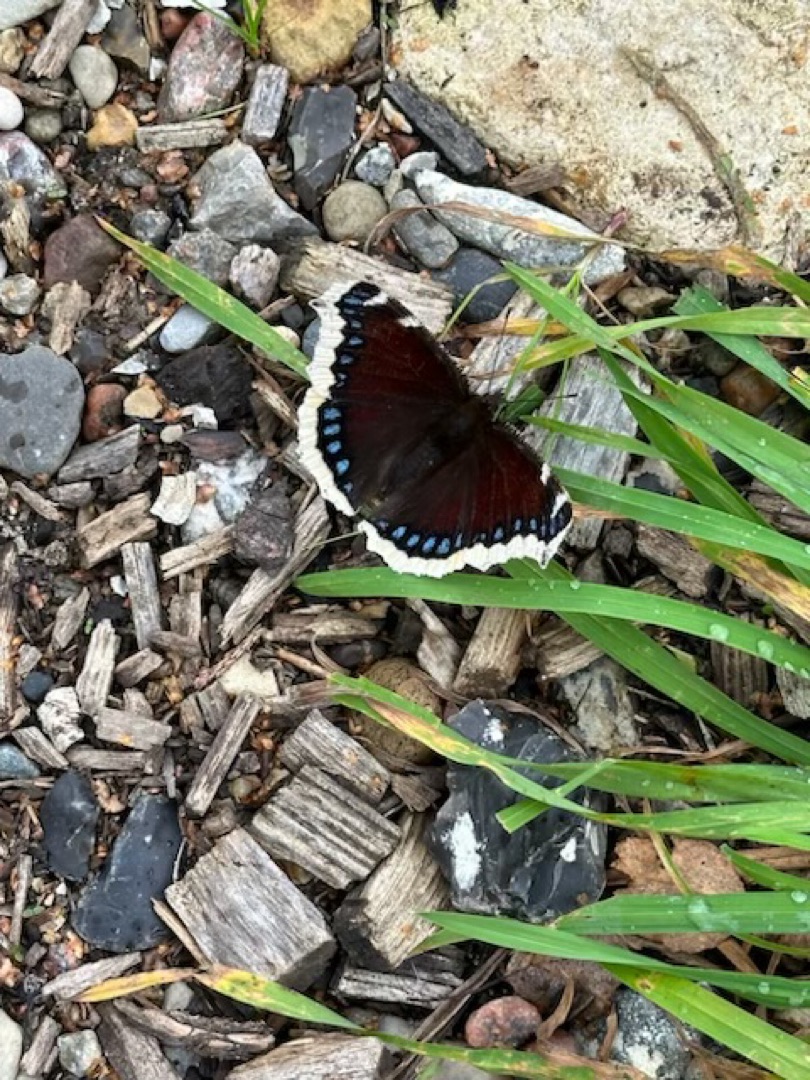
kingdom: Animalia
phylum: Arthropoda
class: Insecta
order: Lepidoptera
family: Nymphalidae
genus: Nymphalis
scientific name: Nymphalis antiopa
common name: Sørgekåbe
